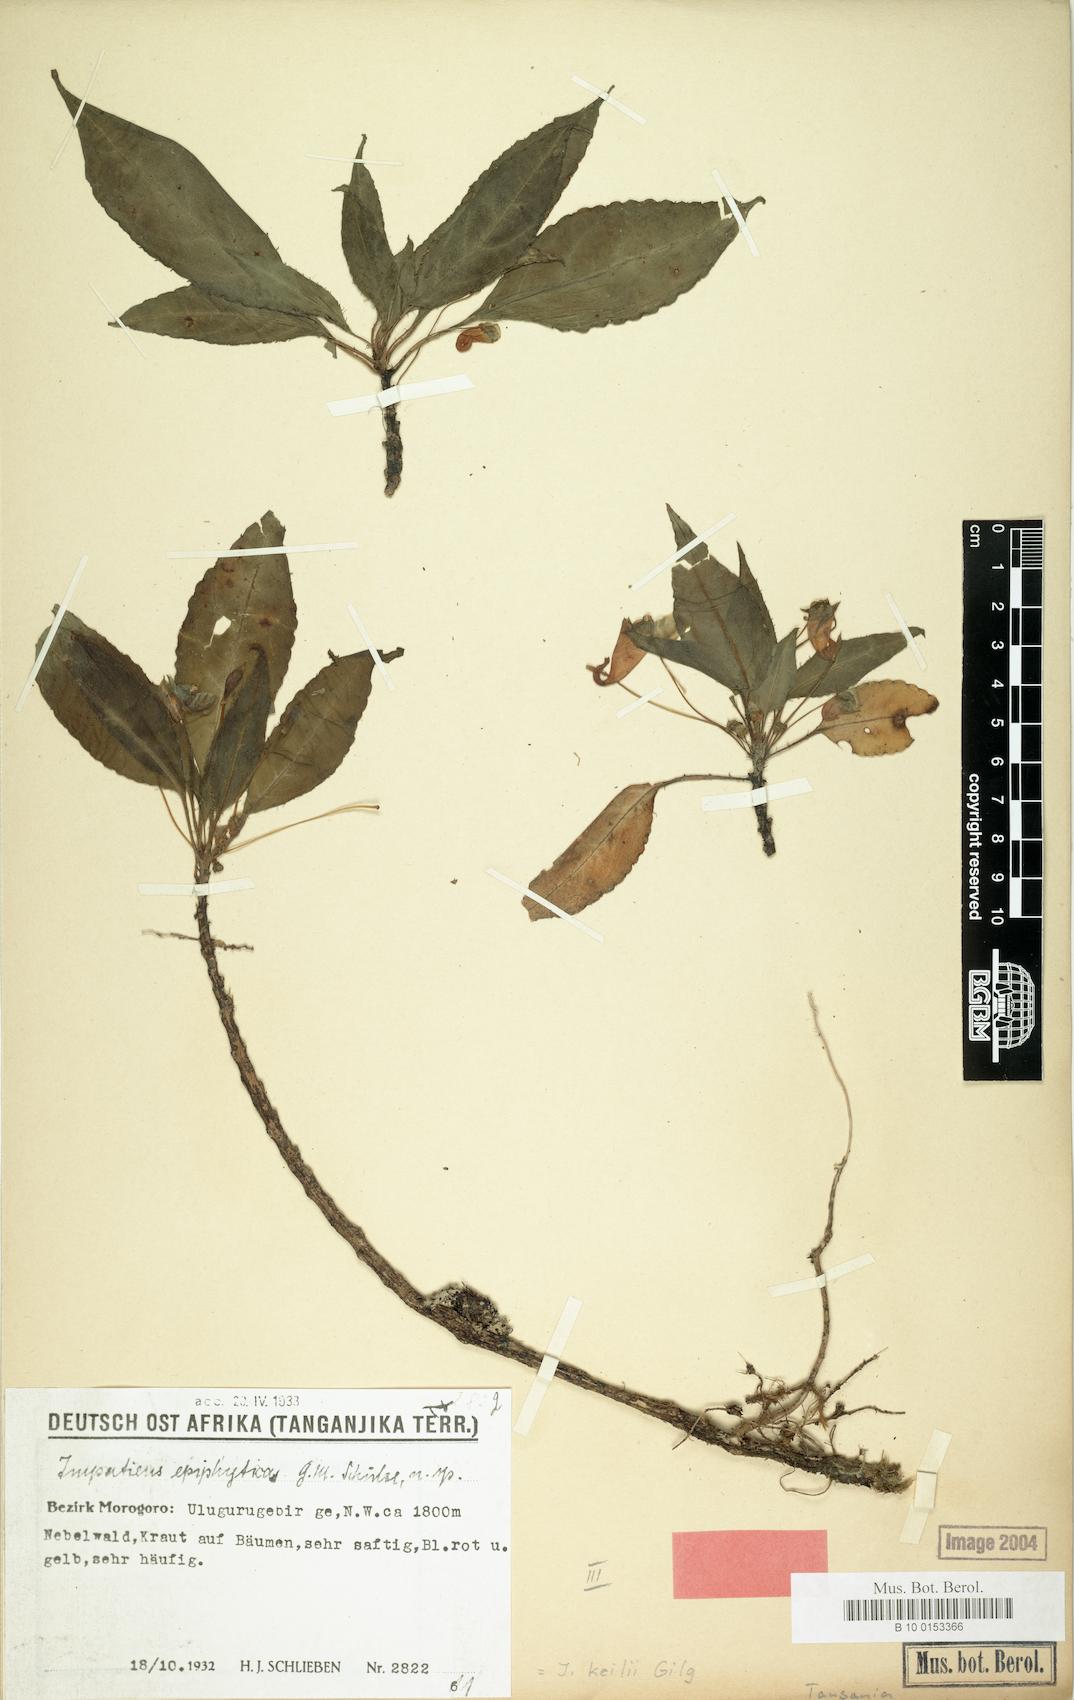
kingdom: Plantae
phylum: Tracheophyta
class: Magnoliopsida
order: Ericales
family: Balsaminaceae
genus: Impatiens
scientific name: Impatiens keilii
